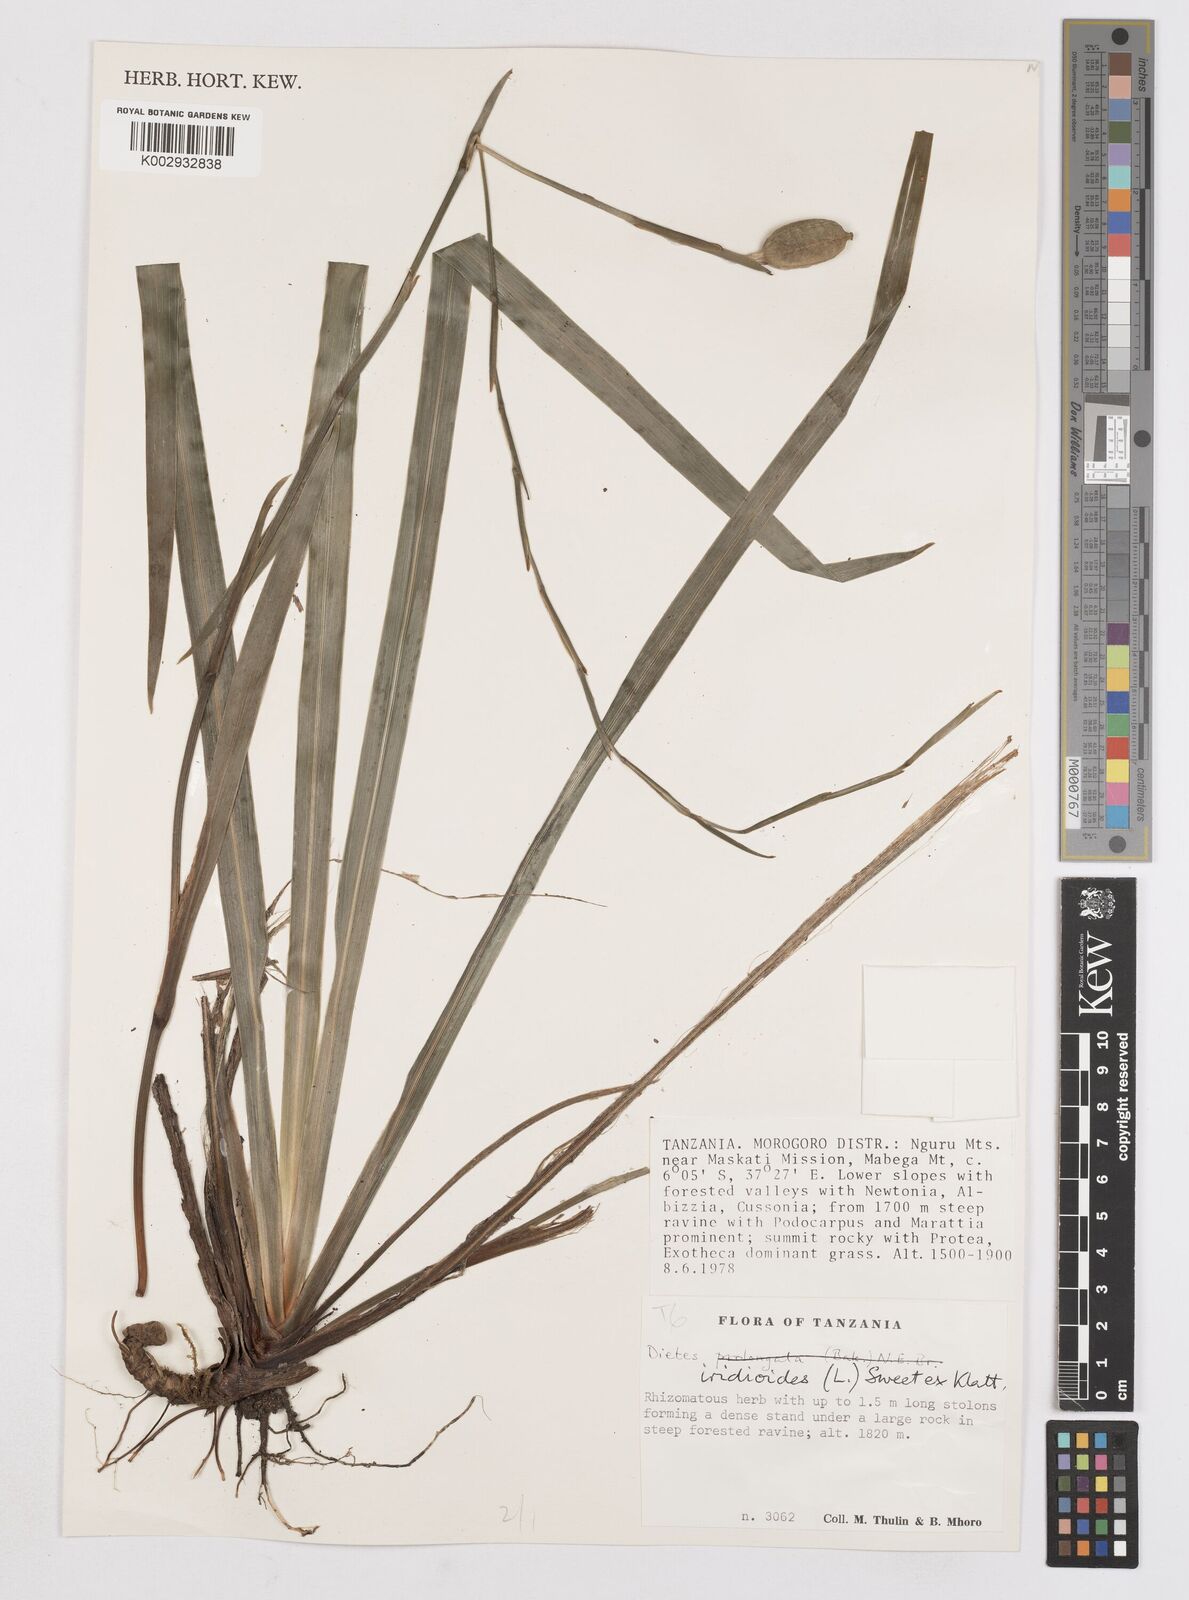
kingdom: Plantae
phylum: Tracheophyta
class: Liliopsida
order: Asparagales
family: Iridaceae
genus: Dietes
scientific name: Dietes iridioides
